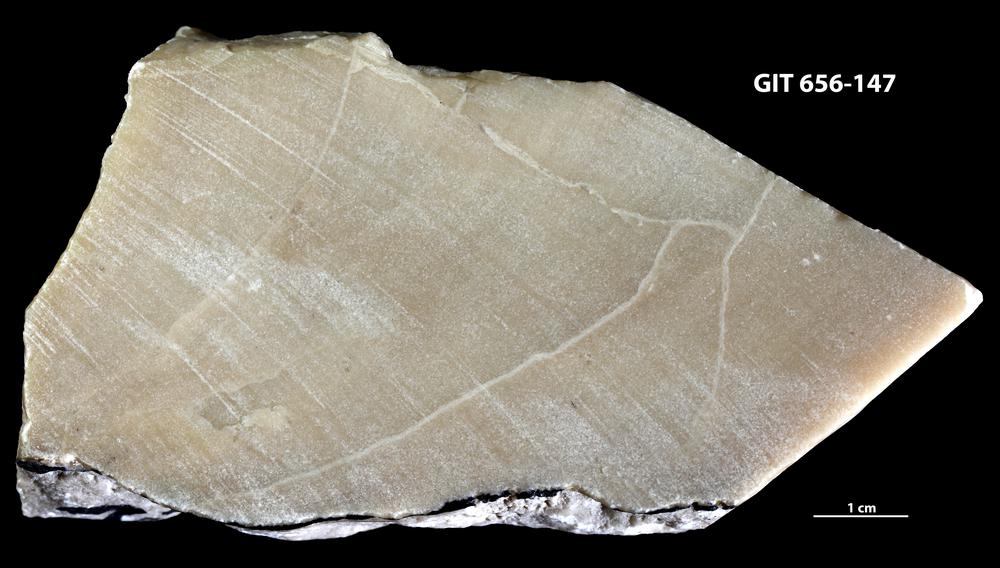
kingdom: Animalia
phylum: Porifera
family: Actinostromatidae
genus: Plectostroma
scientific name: Plectostroma
